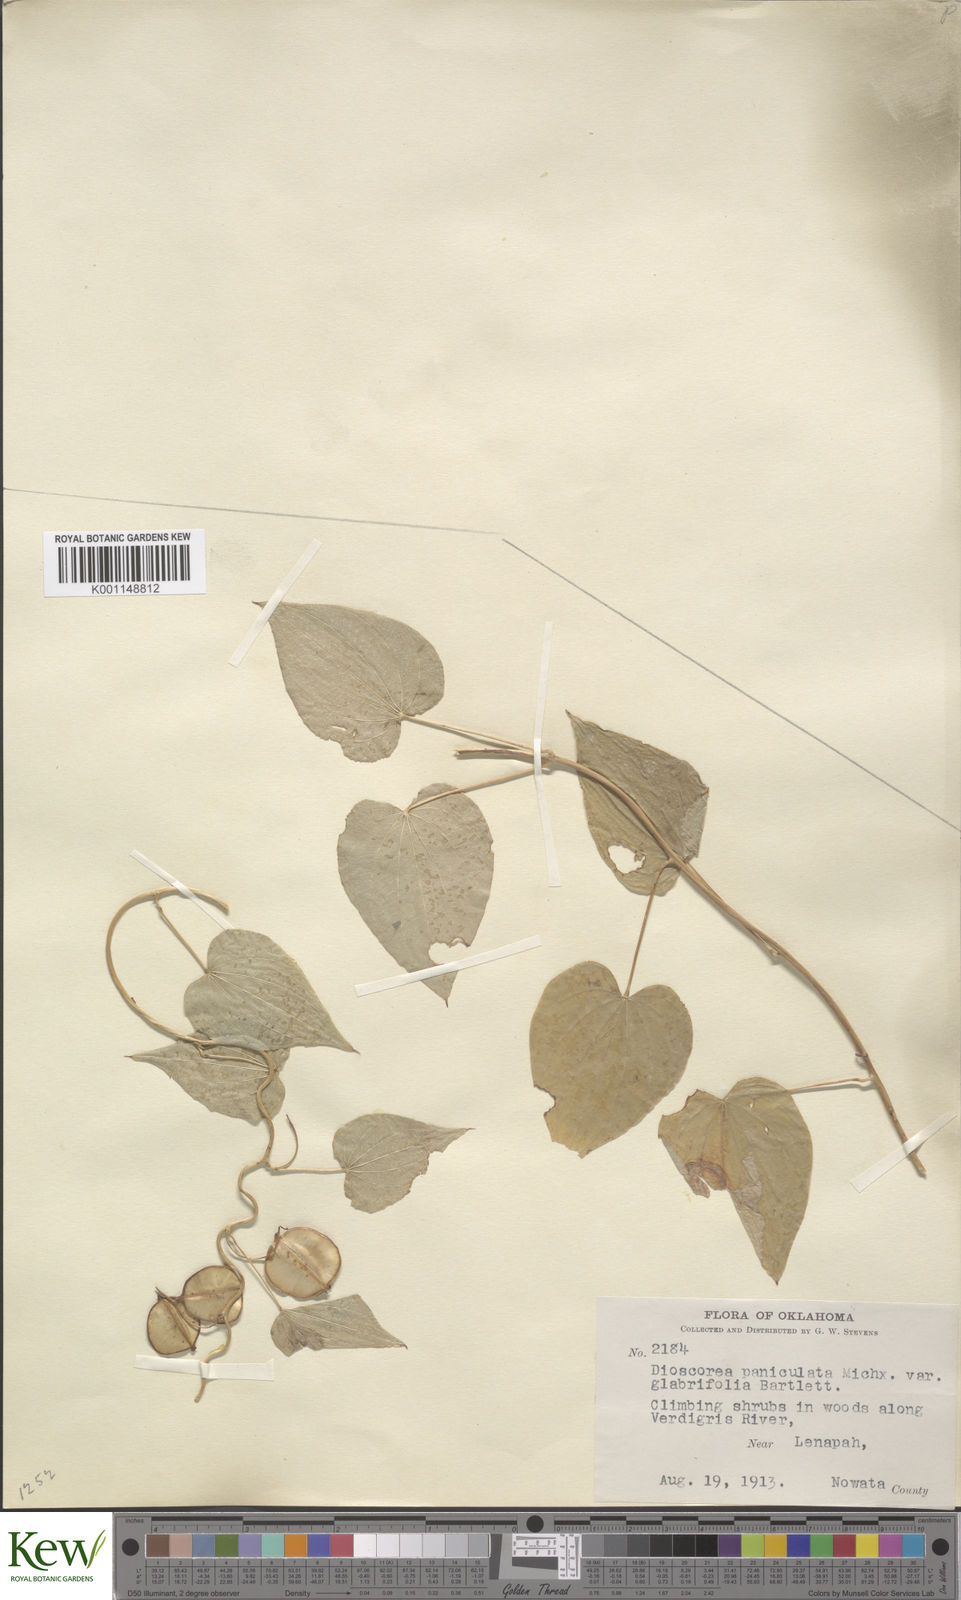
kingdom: Plantae
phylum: Tracheophyta
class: Liliopsida
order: Dioscoreales
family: Dioscoreaceae
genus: Dioscorea
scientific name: Dioscorea villosa
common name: Wild yam
